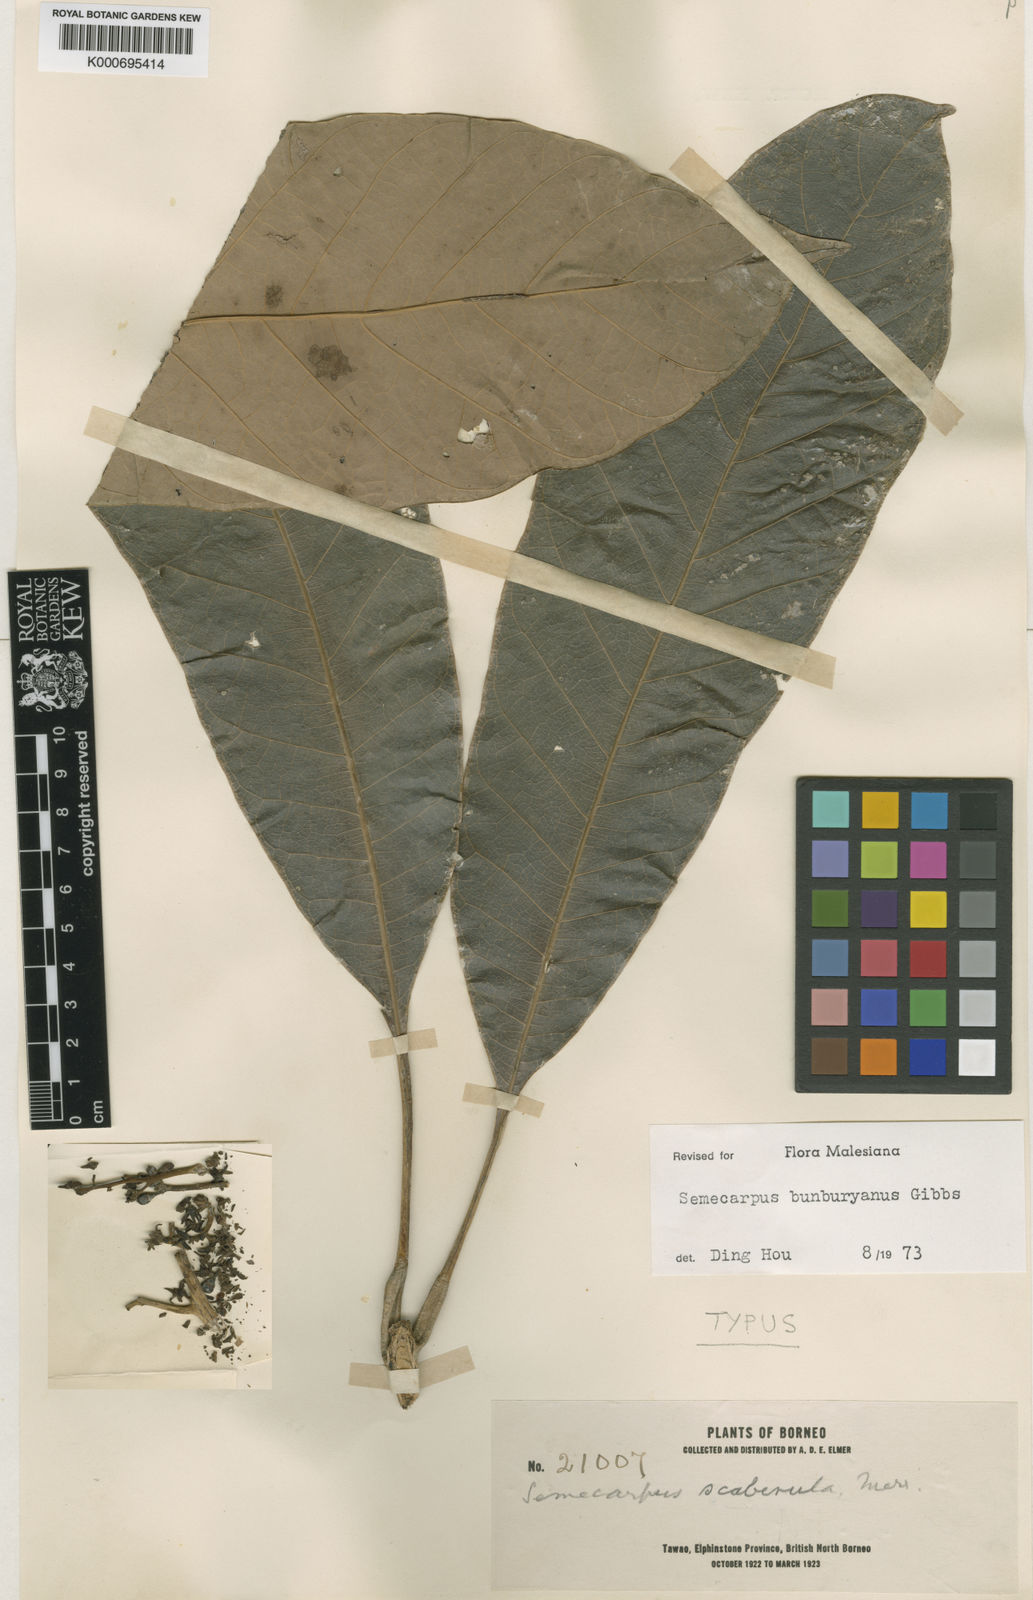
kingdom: Plantae
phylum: Tracheophyta
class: Magnoliopsida
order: Sapindales
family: Anacardiaceae
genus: Semecarpus
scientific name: Semecarpus
